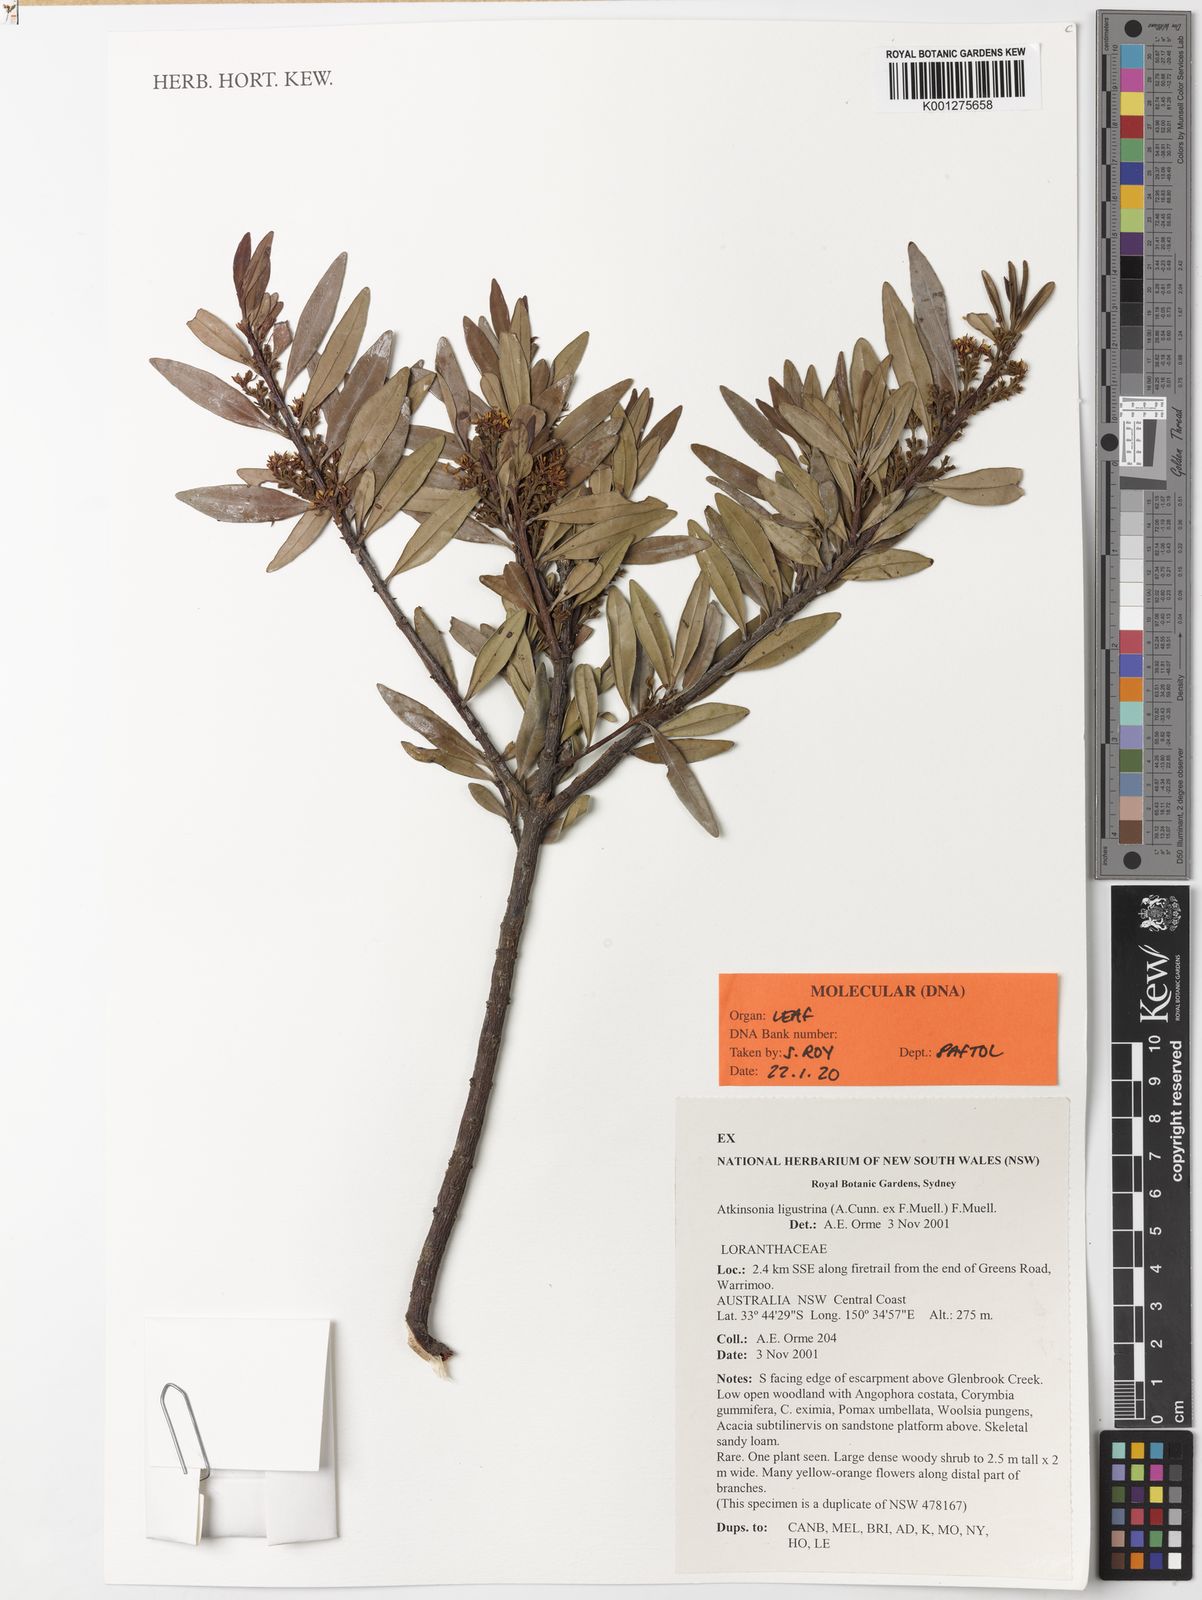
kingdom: Plantae
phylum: Tracheophyta
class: Magnoliopsida
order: Santalales
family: Loranthaceae
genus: Atkinsonia
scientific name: Atkinsonia ligustrina
